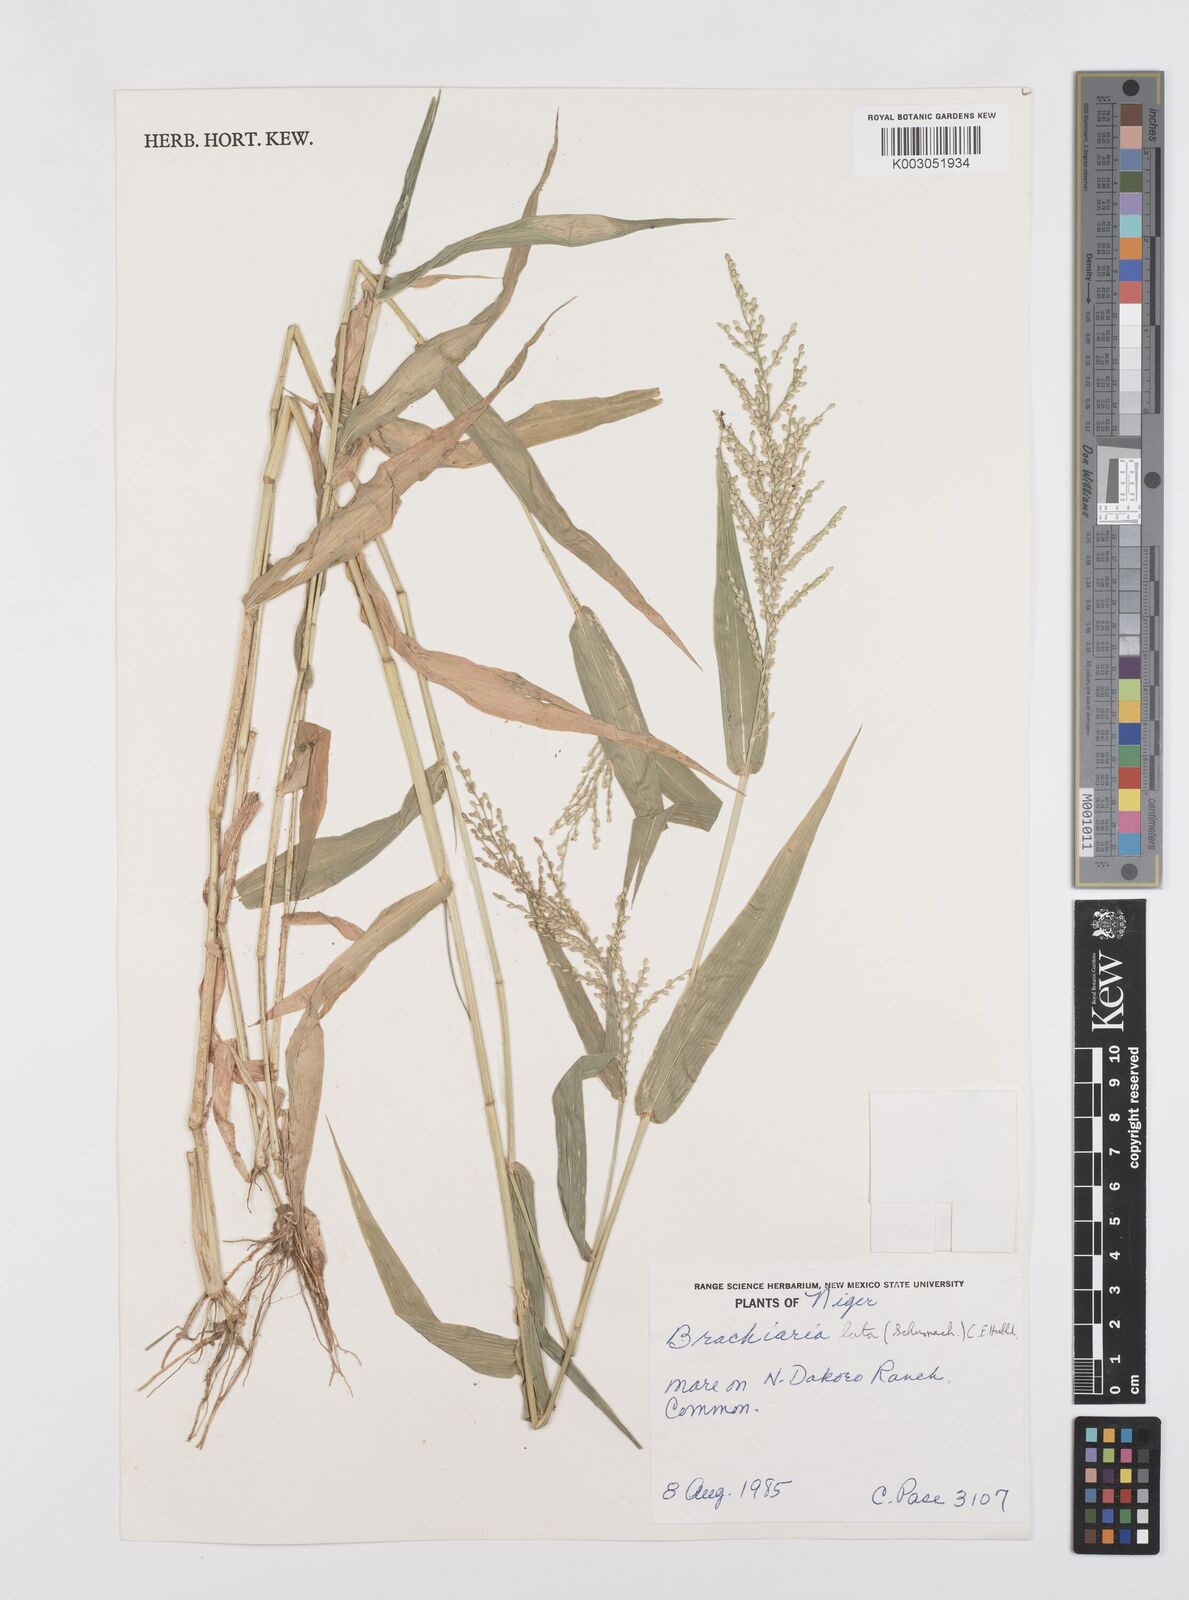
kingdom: Plantae
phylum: Tracheophyta
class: Liliopsida
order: Poales
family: Poaceae
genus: Urochloa
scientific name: Urochloa lata
